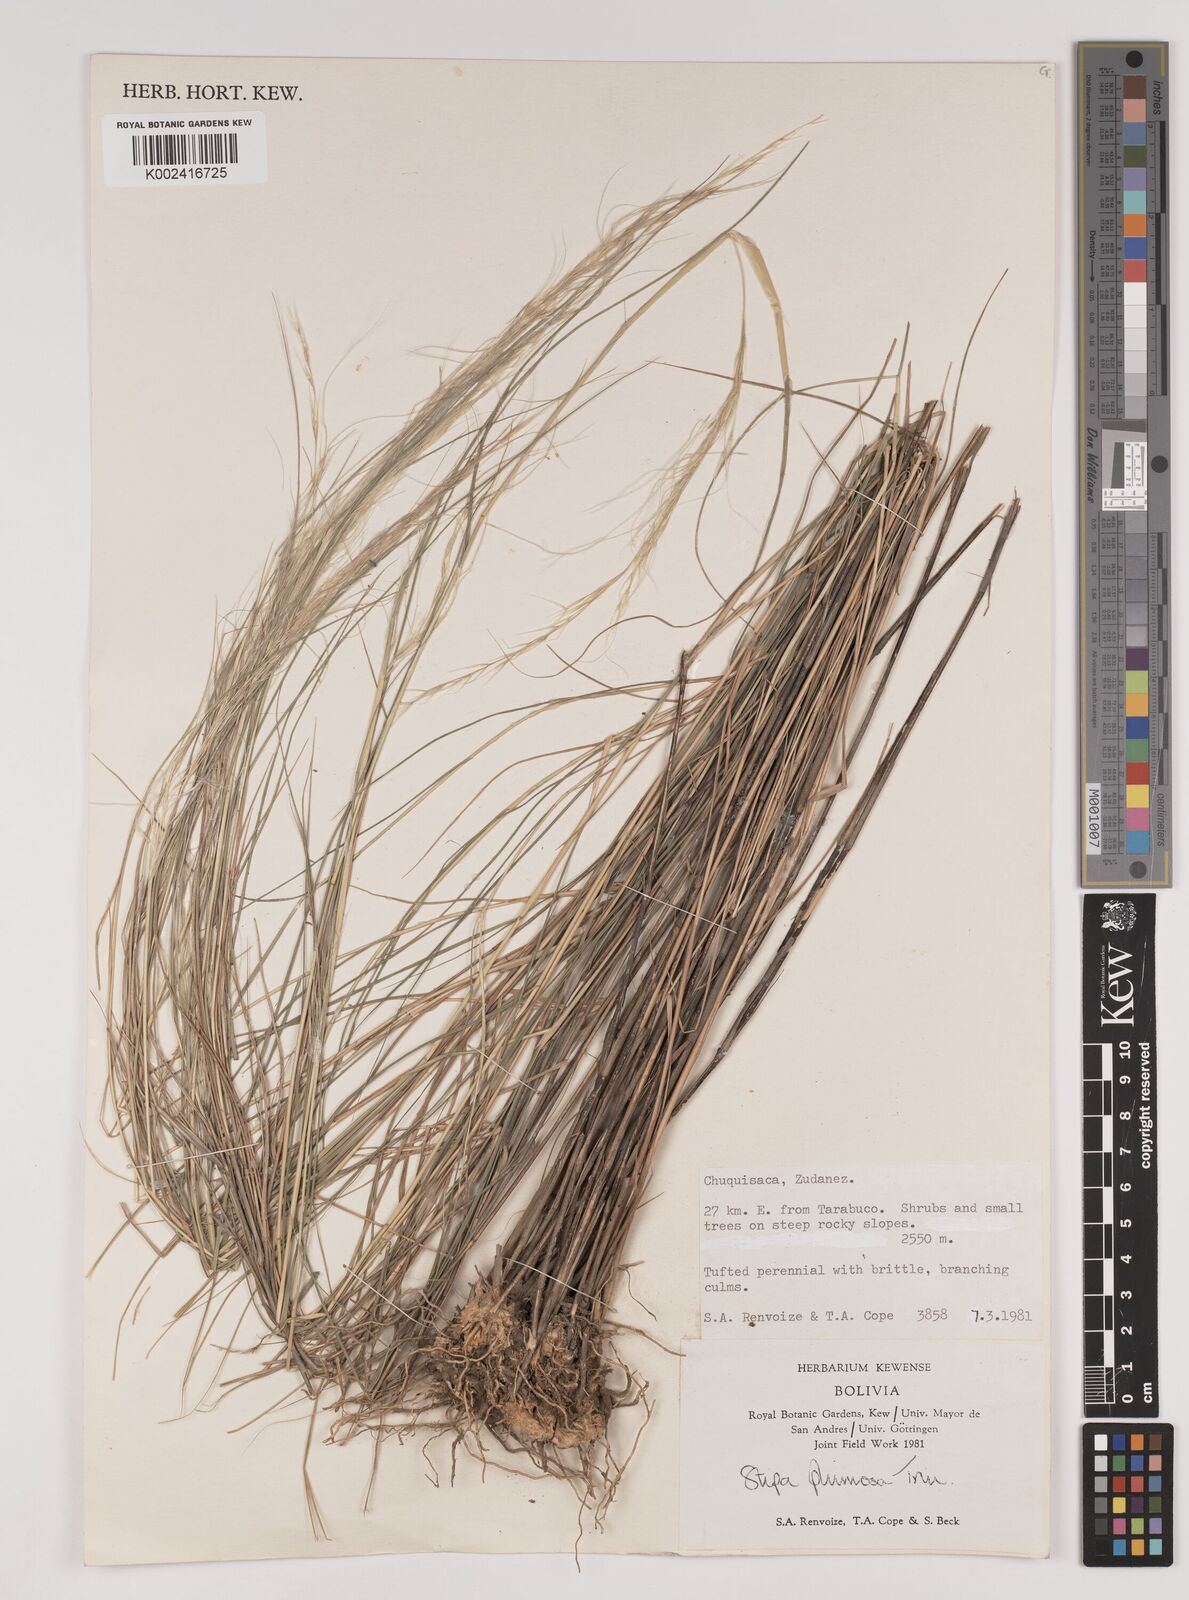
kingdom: Plantae
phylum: Tracheophyta
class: Liliopsida
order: Poales
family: Poaceae
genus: Stipa
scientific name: Stipa plumosa
